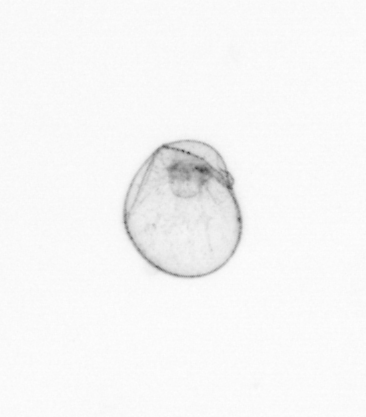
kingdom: Chromista
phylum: Myzozoa
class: Dinophyceae
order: Noctilucales
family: Noctilucaceae
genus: Noctiluca
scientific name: Noctiluca scintillans
